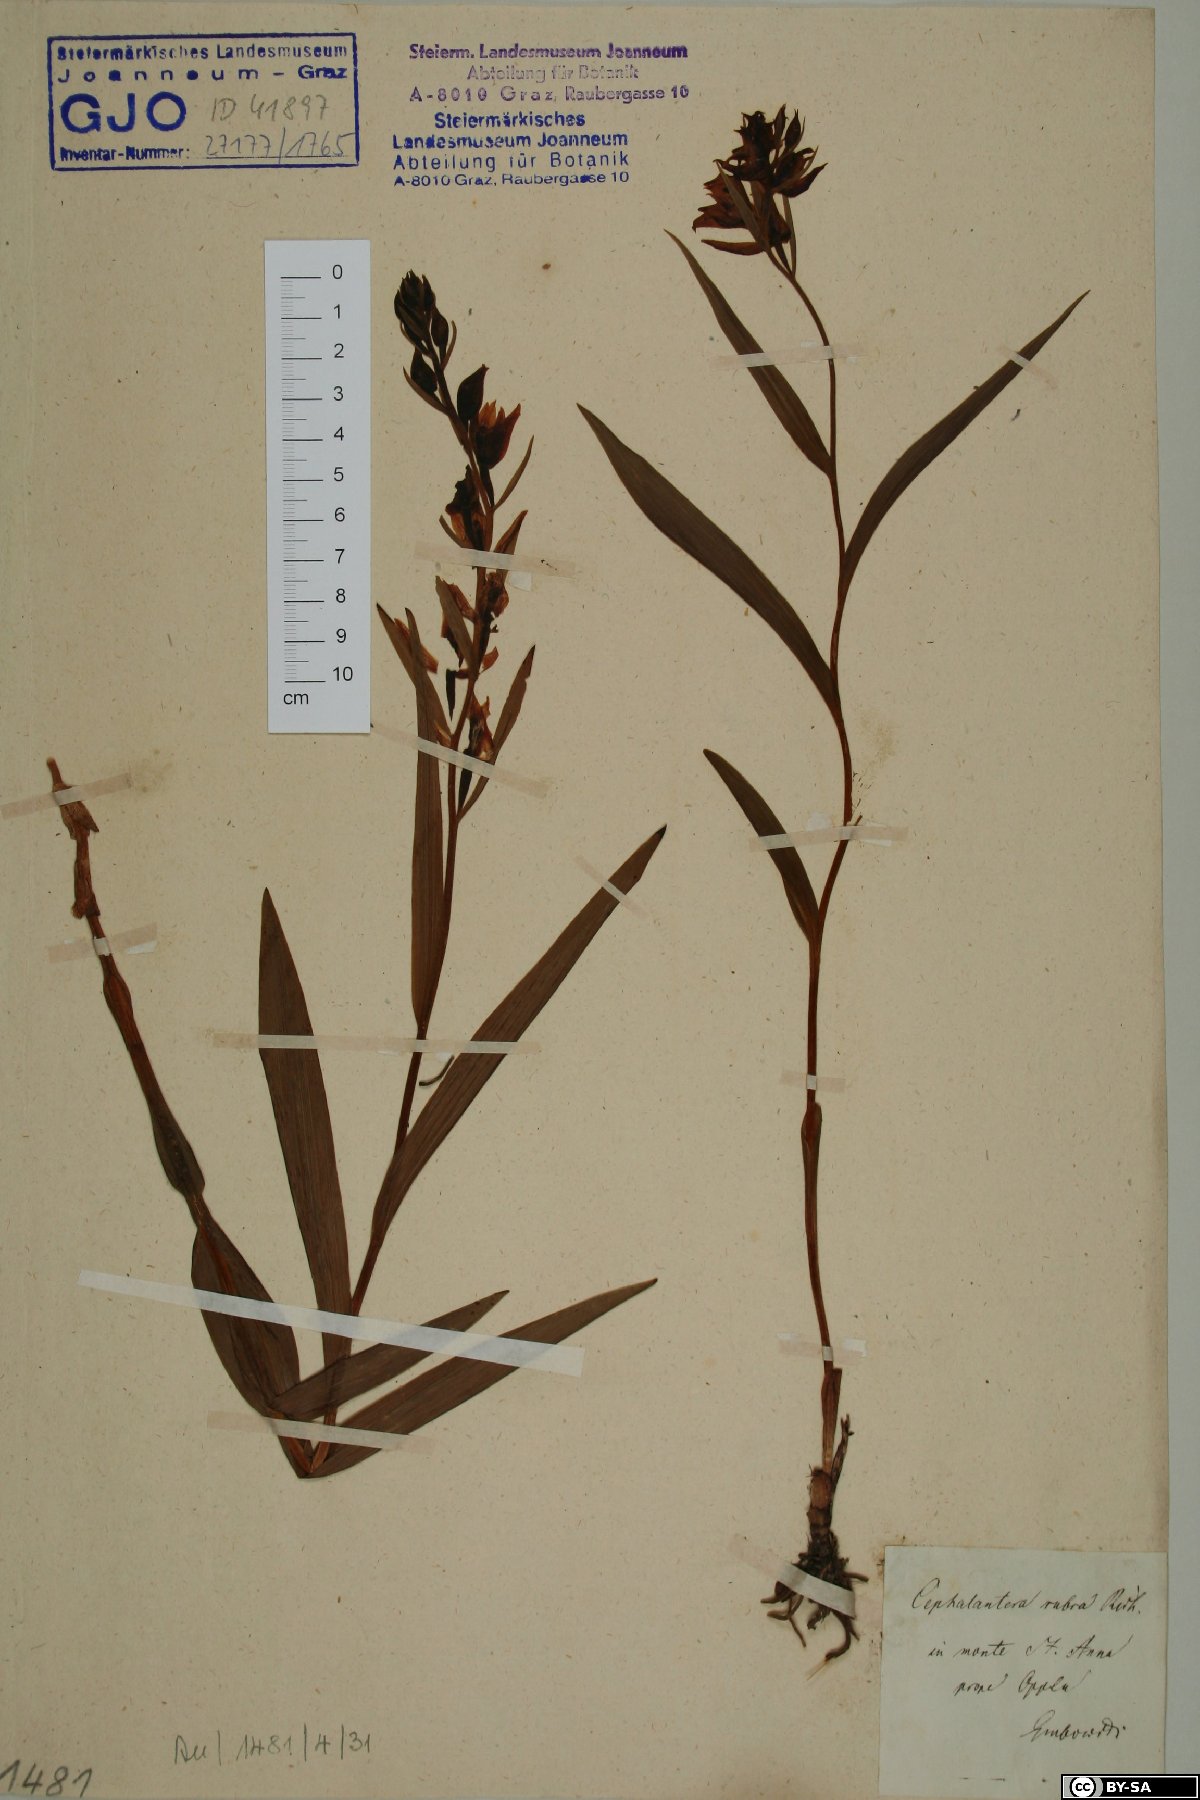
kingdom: Plantae
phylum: Tracheophyta
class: Liliopsida
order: Asparagales
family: Orchidaceae
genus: Cephalanthera
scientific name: Cephalanthera rubra
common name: Red helleborine
